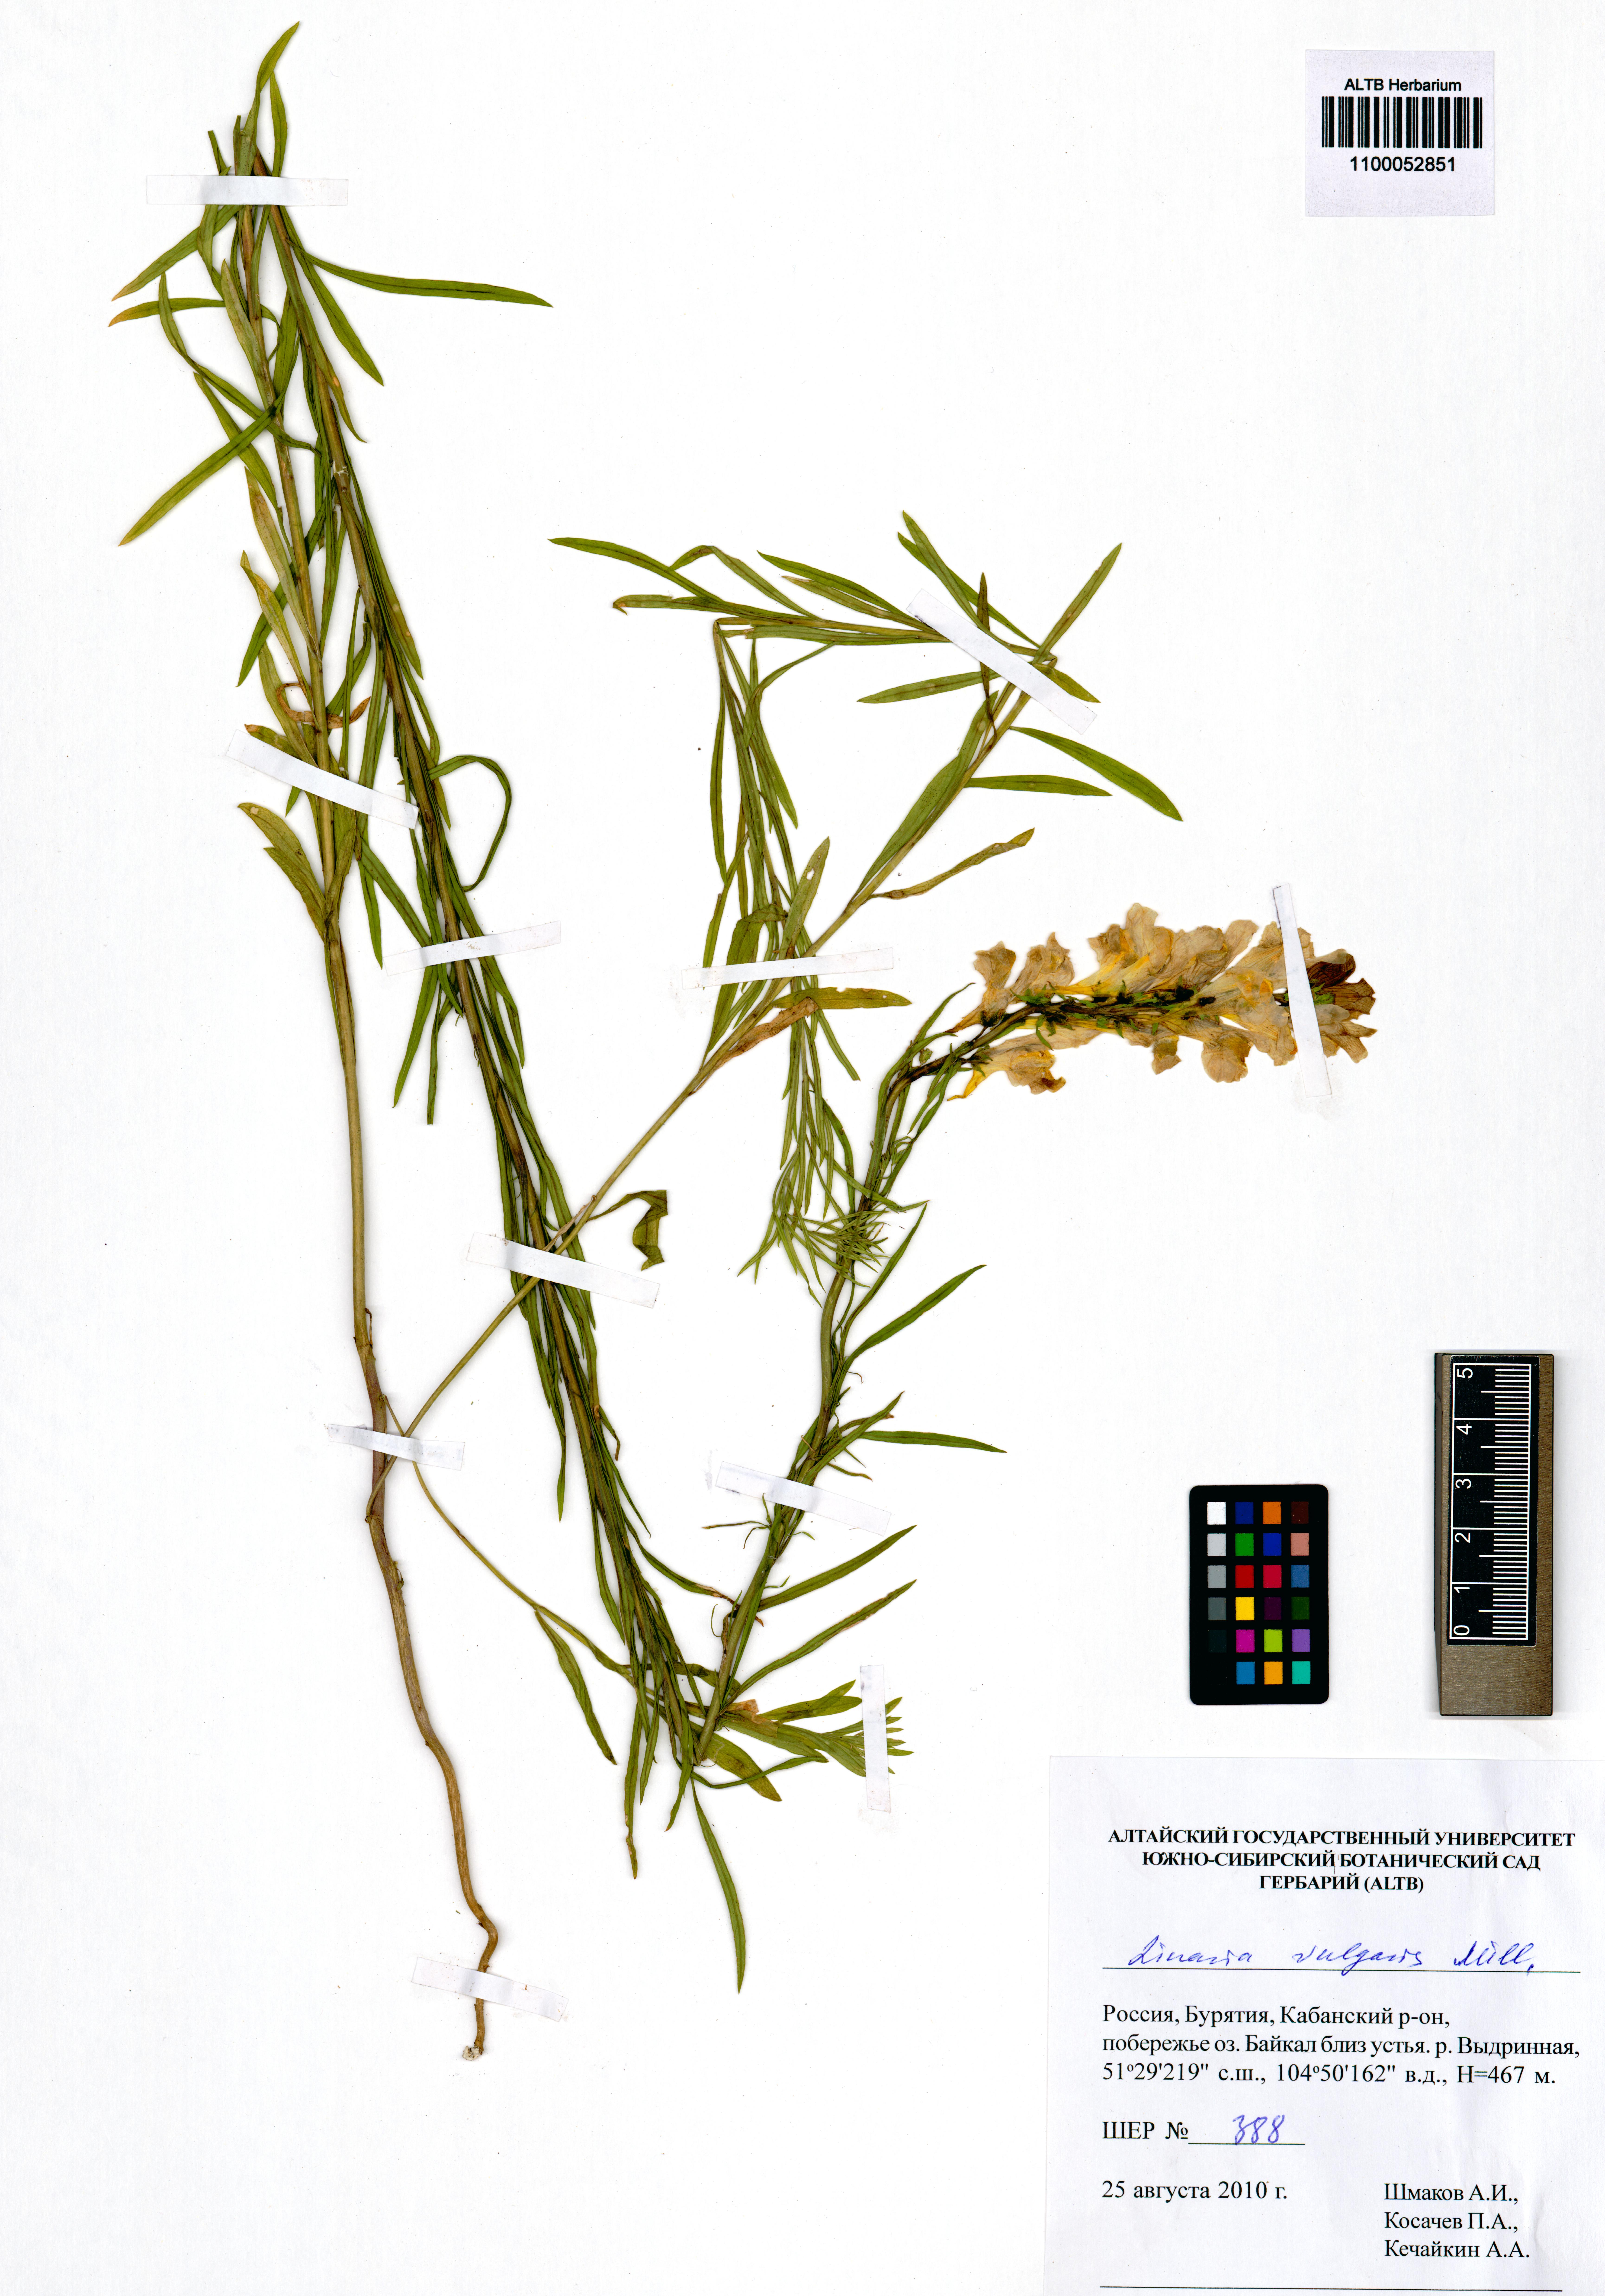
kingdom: Plantae
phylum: Tracheophyta
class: Magnoliopsida
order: Lamiales
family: Plantaginaceae
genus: Linaria
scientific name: Linaria vulgaris
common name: Butter and eggs
